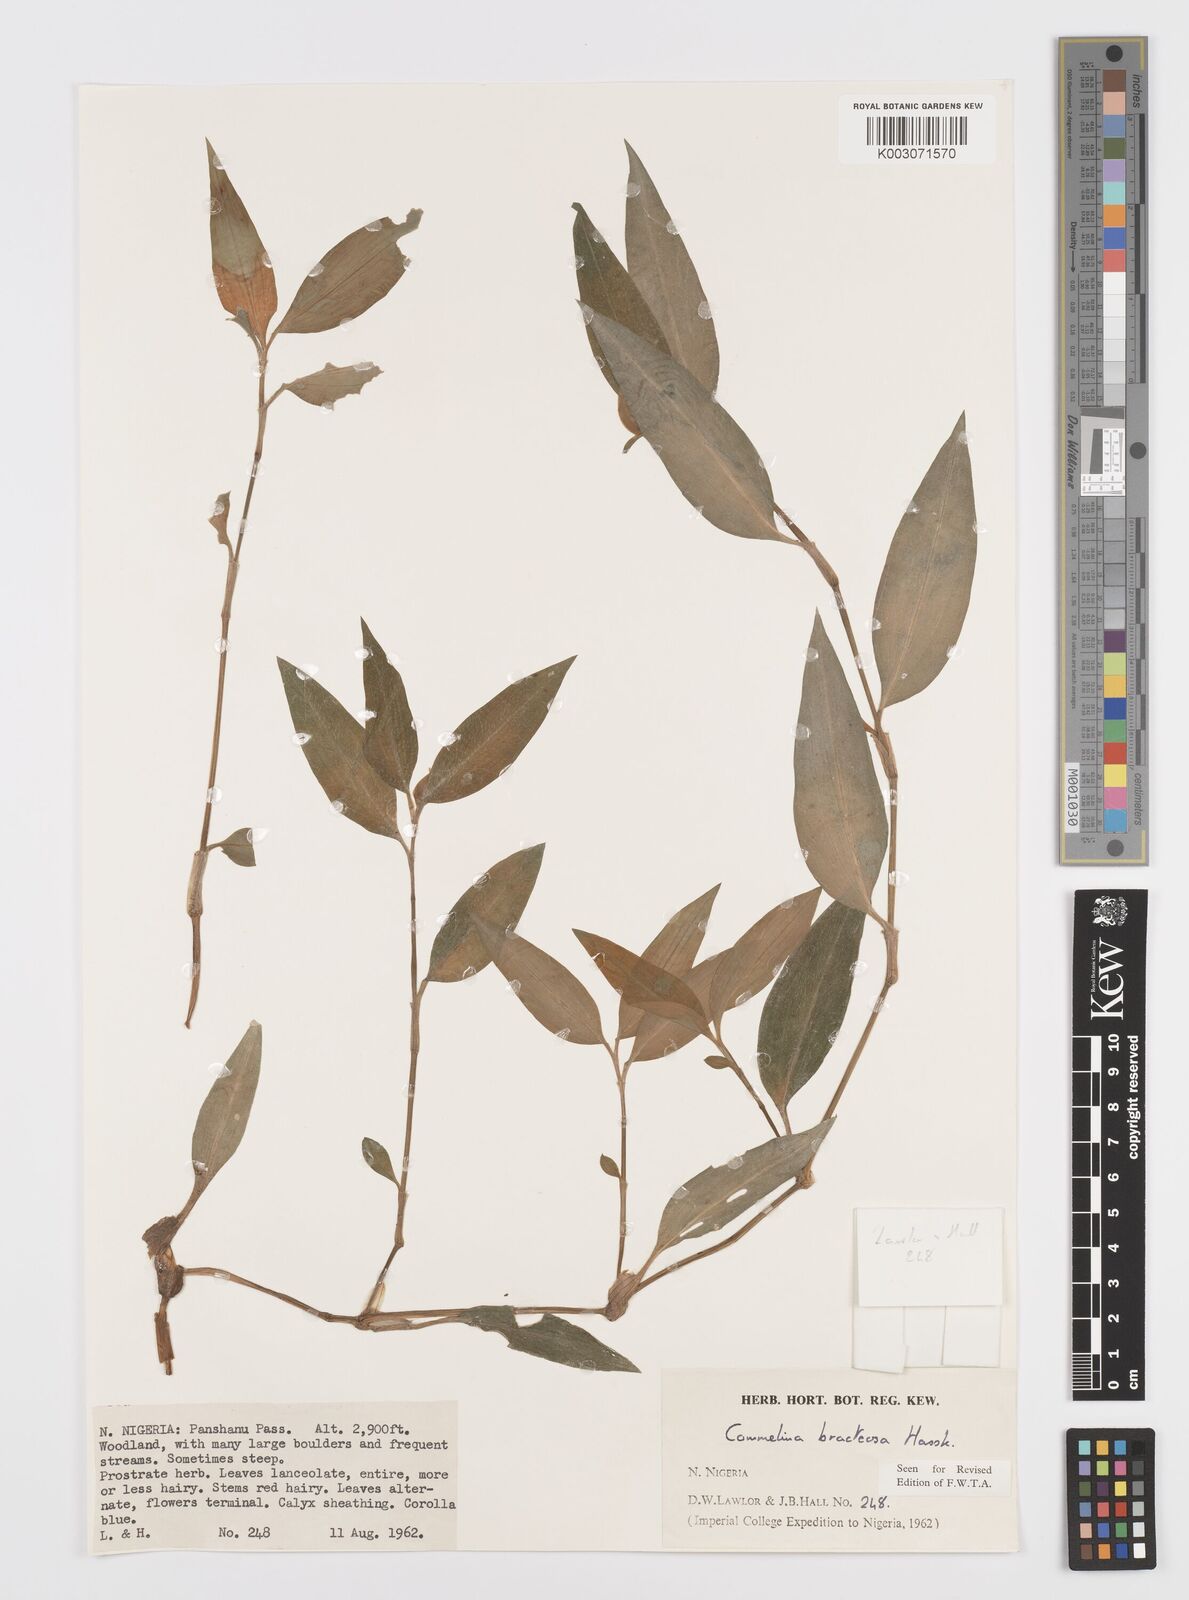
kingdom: Plantae
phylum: Tracheophyta
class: Liliopsida
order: Commelinales
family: Commelinaceae
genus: Commelina
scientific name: Commelina bracteosa
